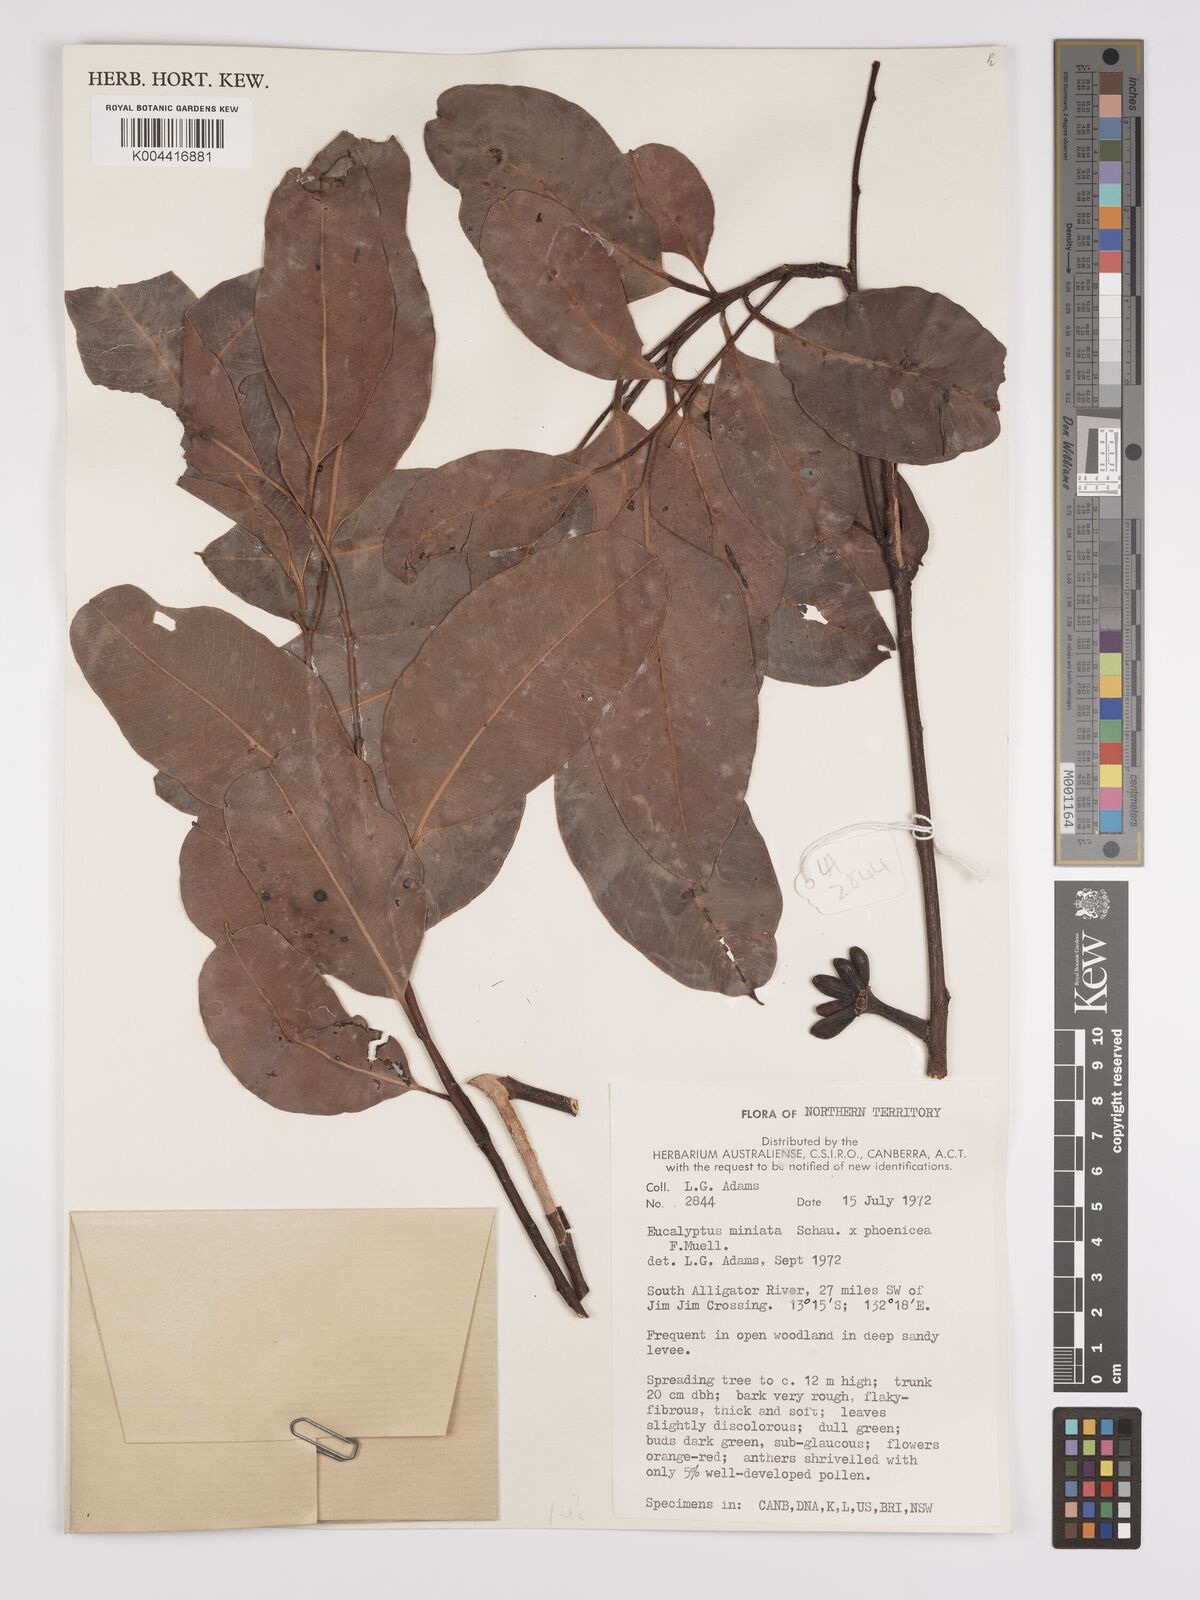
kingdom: Plantae
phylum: Tracheophyta
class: Magnoliopsida
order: Myrtales
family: Myrtaceae
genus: Eucalyptus
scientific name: Eucalyptus miniata
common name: Darwin-woollybutt
